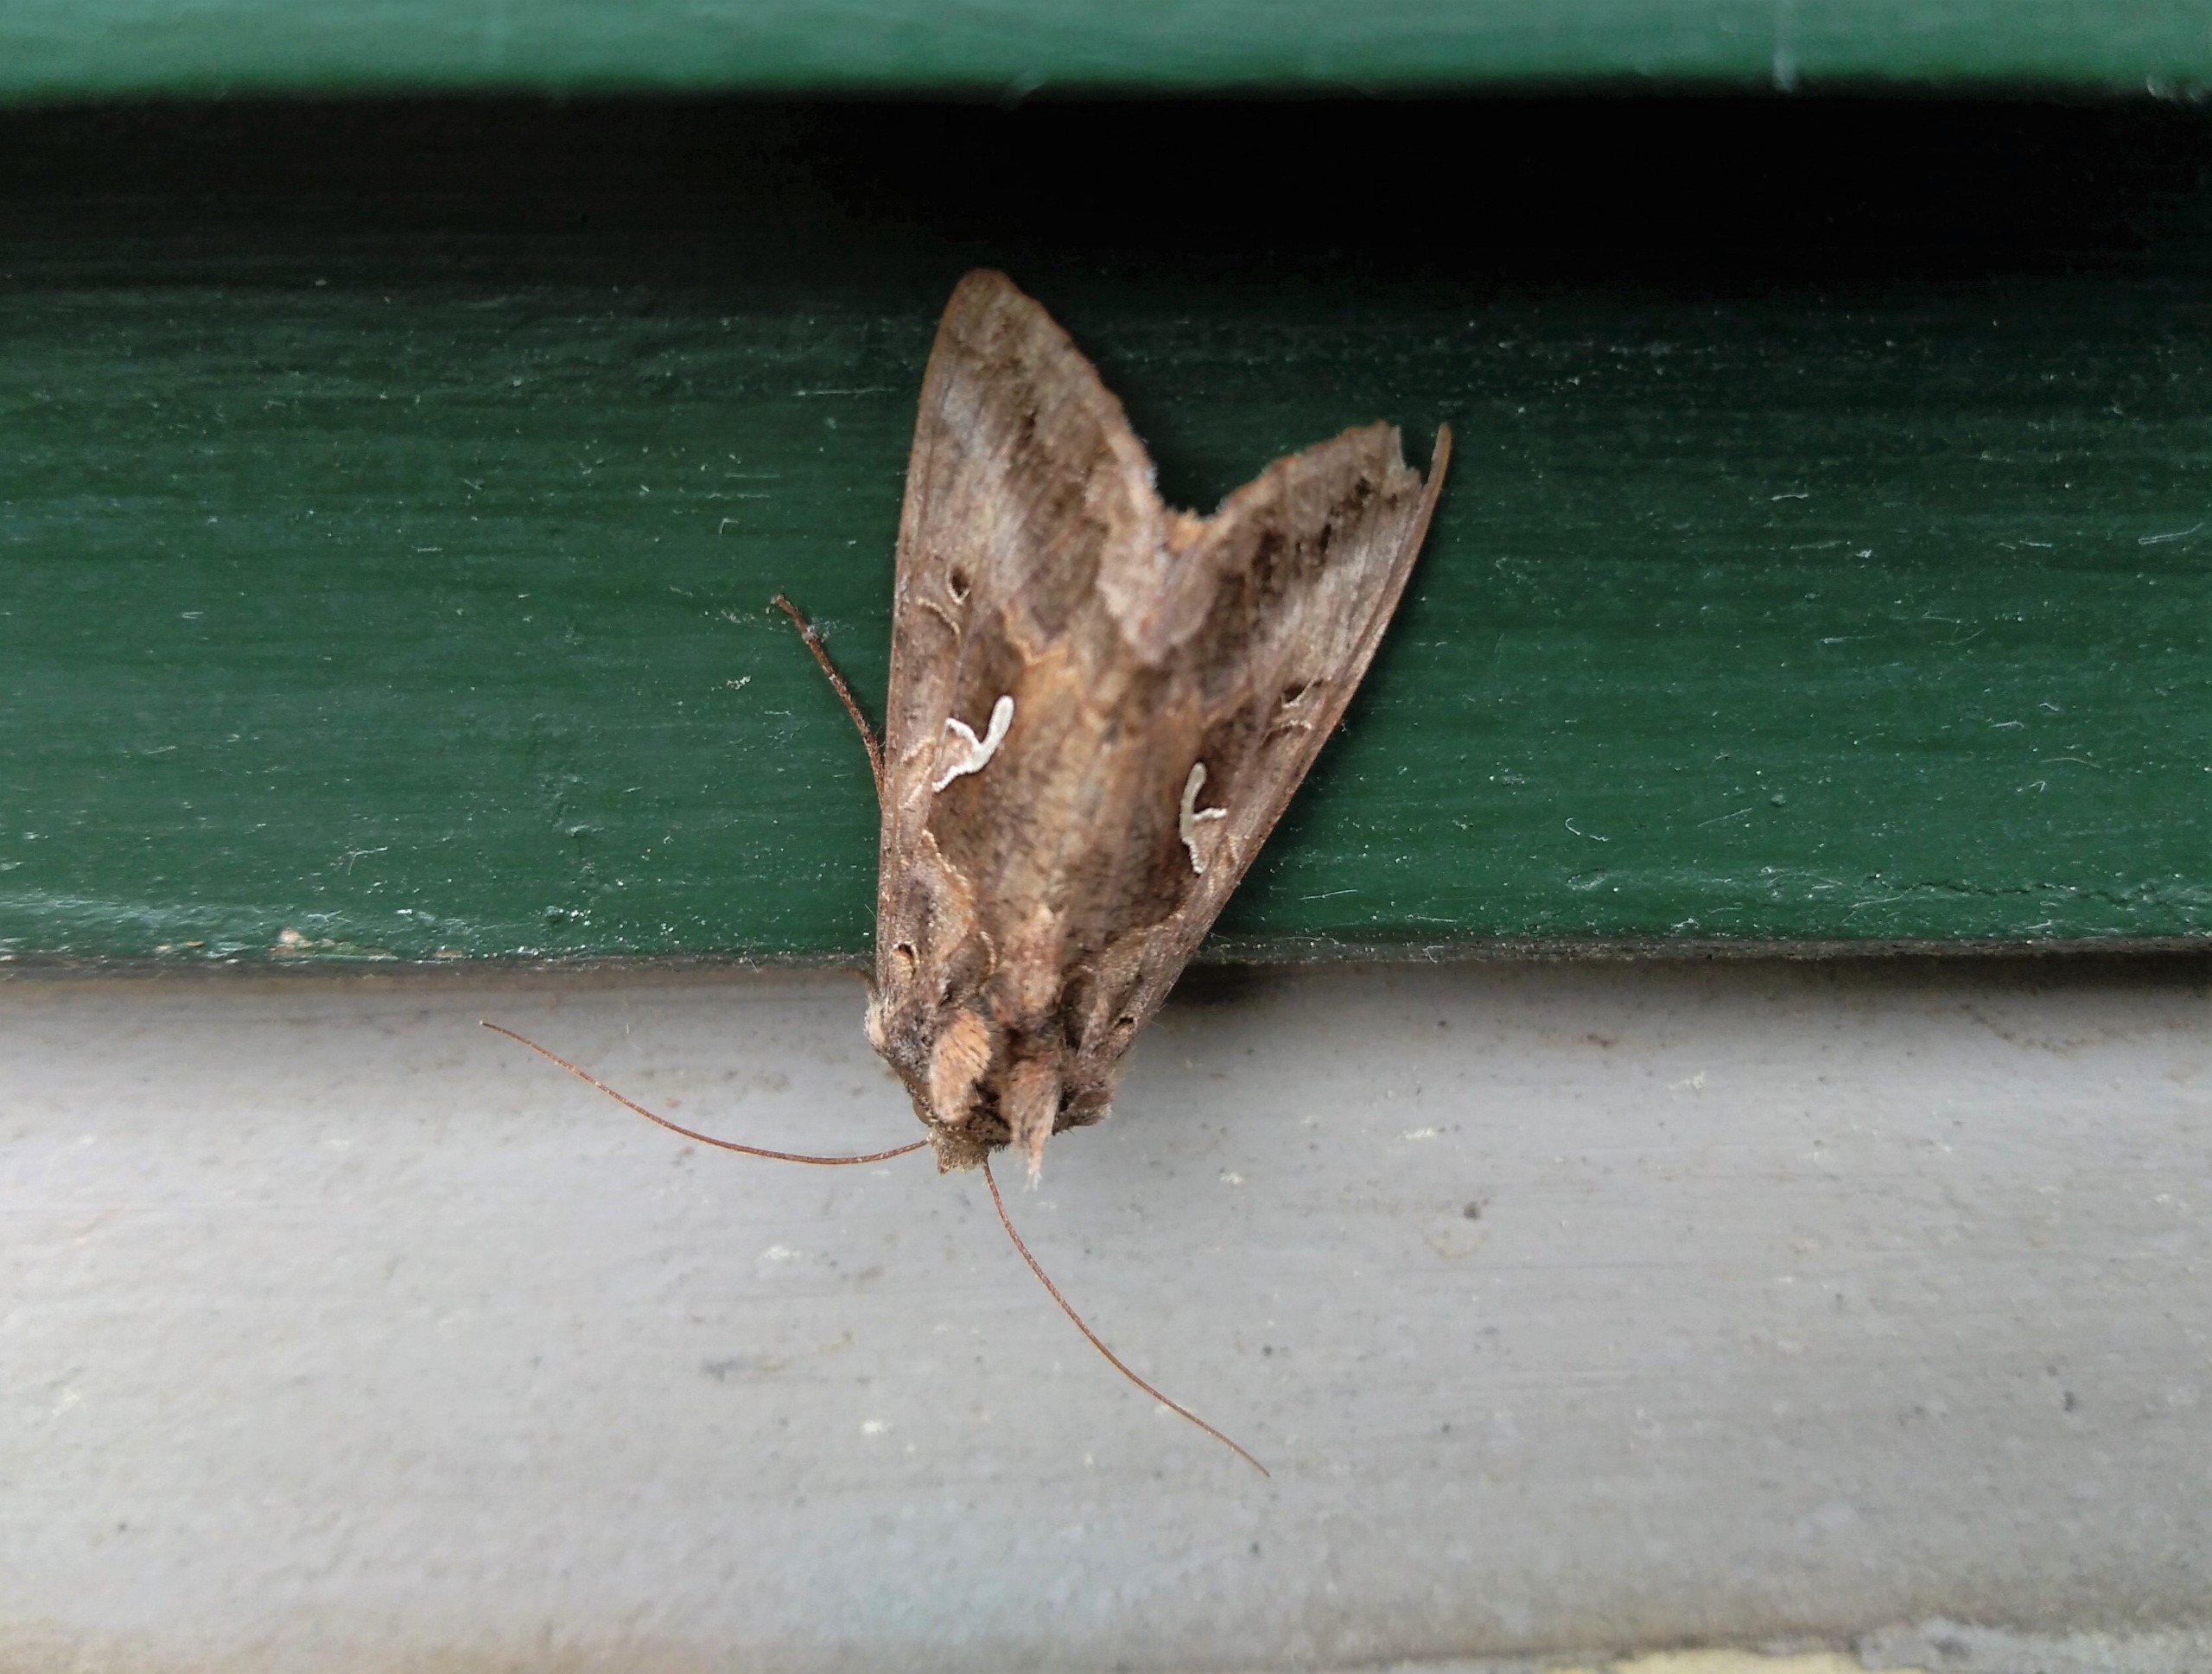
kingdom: Animalia
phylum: Arthropoda
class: Insecta
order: Lepidoptera
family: Noctuidae
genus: Autographa
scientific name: Autographa gamma
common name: Gammaugle
